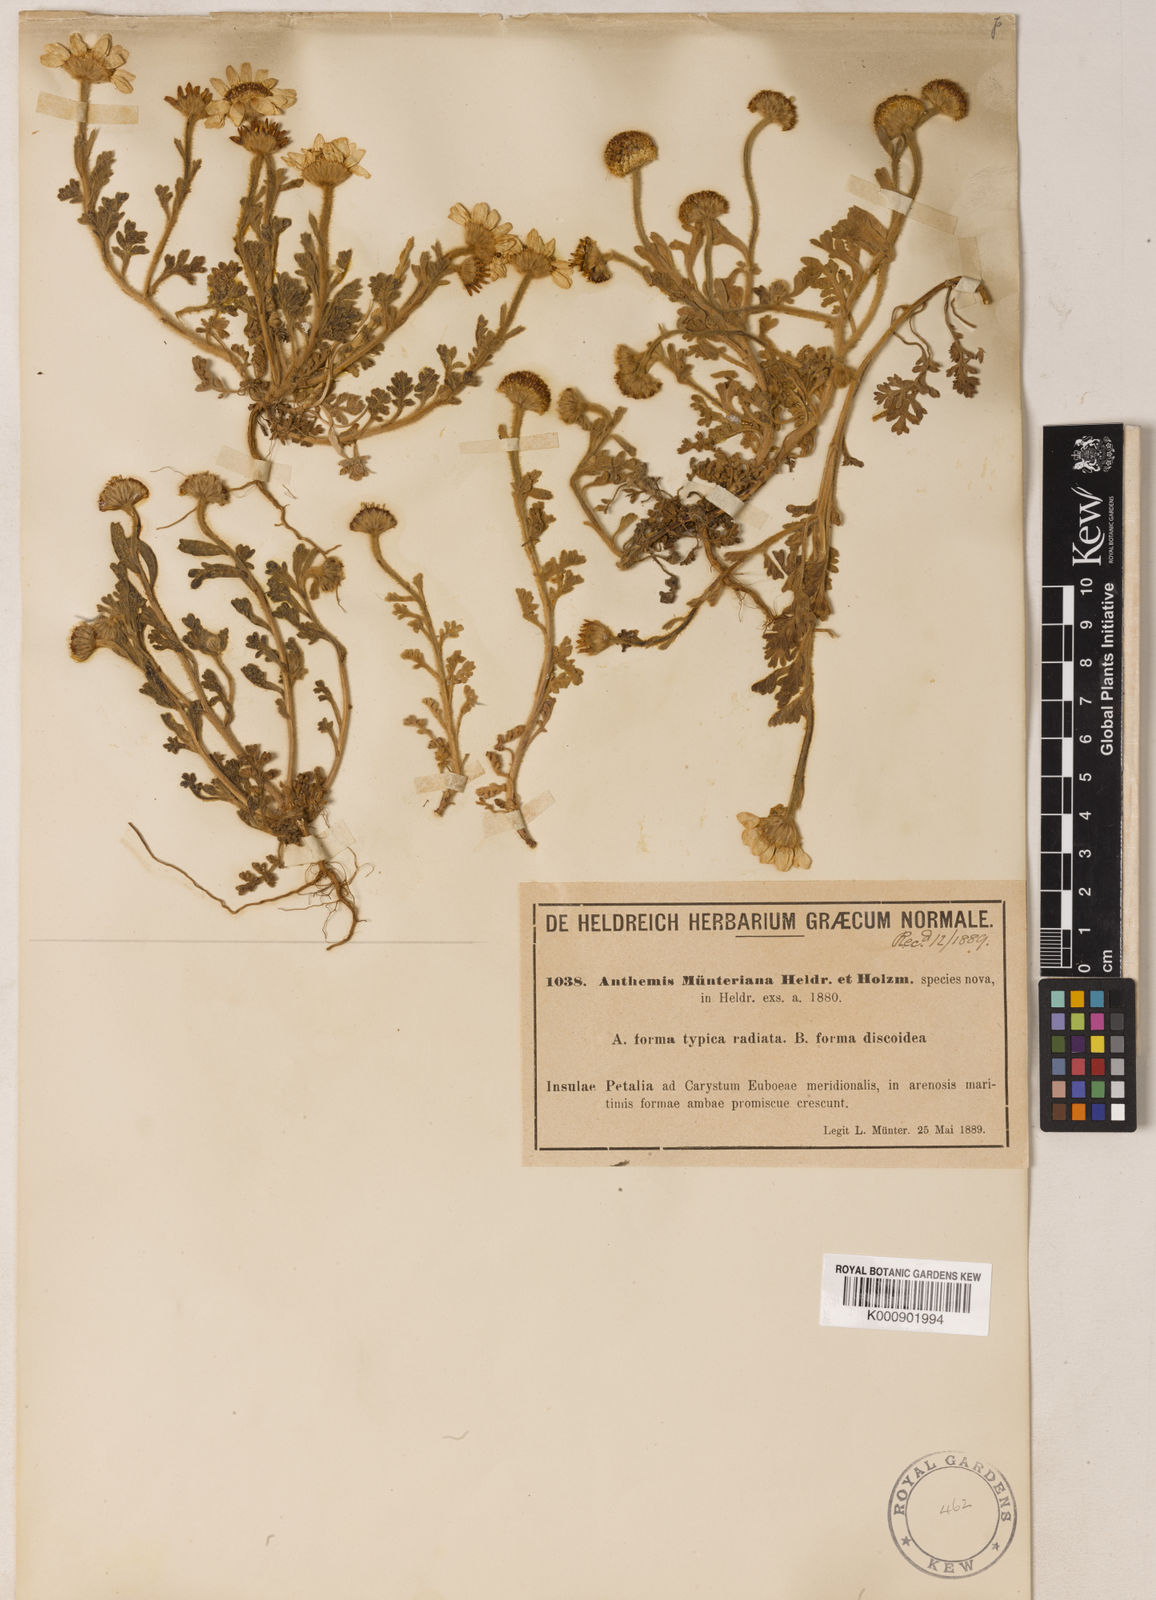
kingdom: Plantae
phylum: Tracheophyta
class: Magnoliopsida
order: Asterales
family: Asteraceae
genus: Anthemis
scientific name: Anthemis tomentosa
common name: Woolly chamomile
